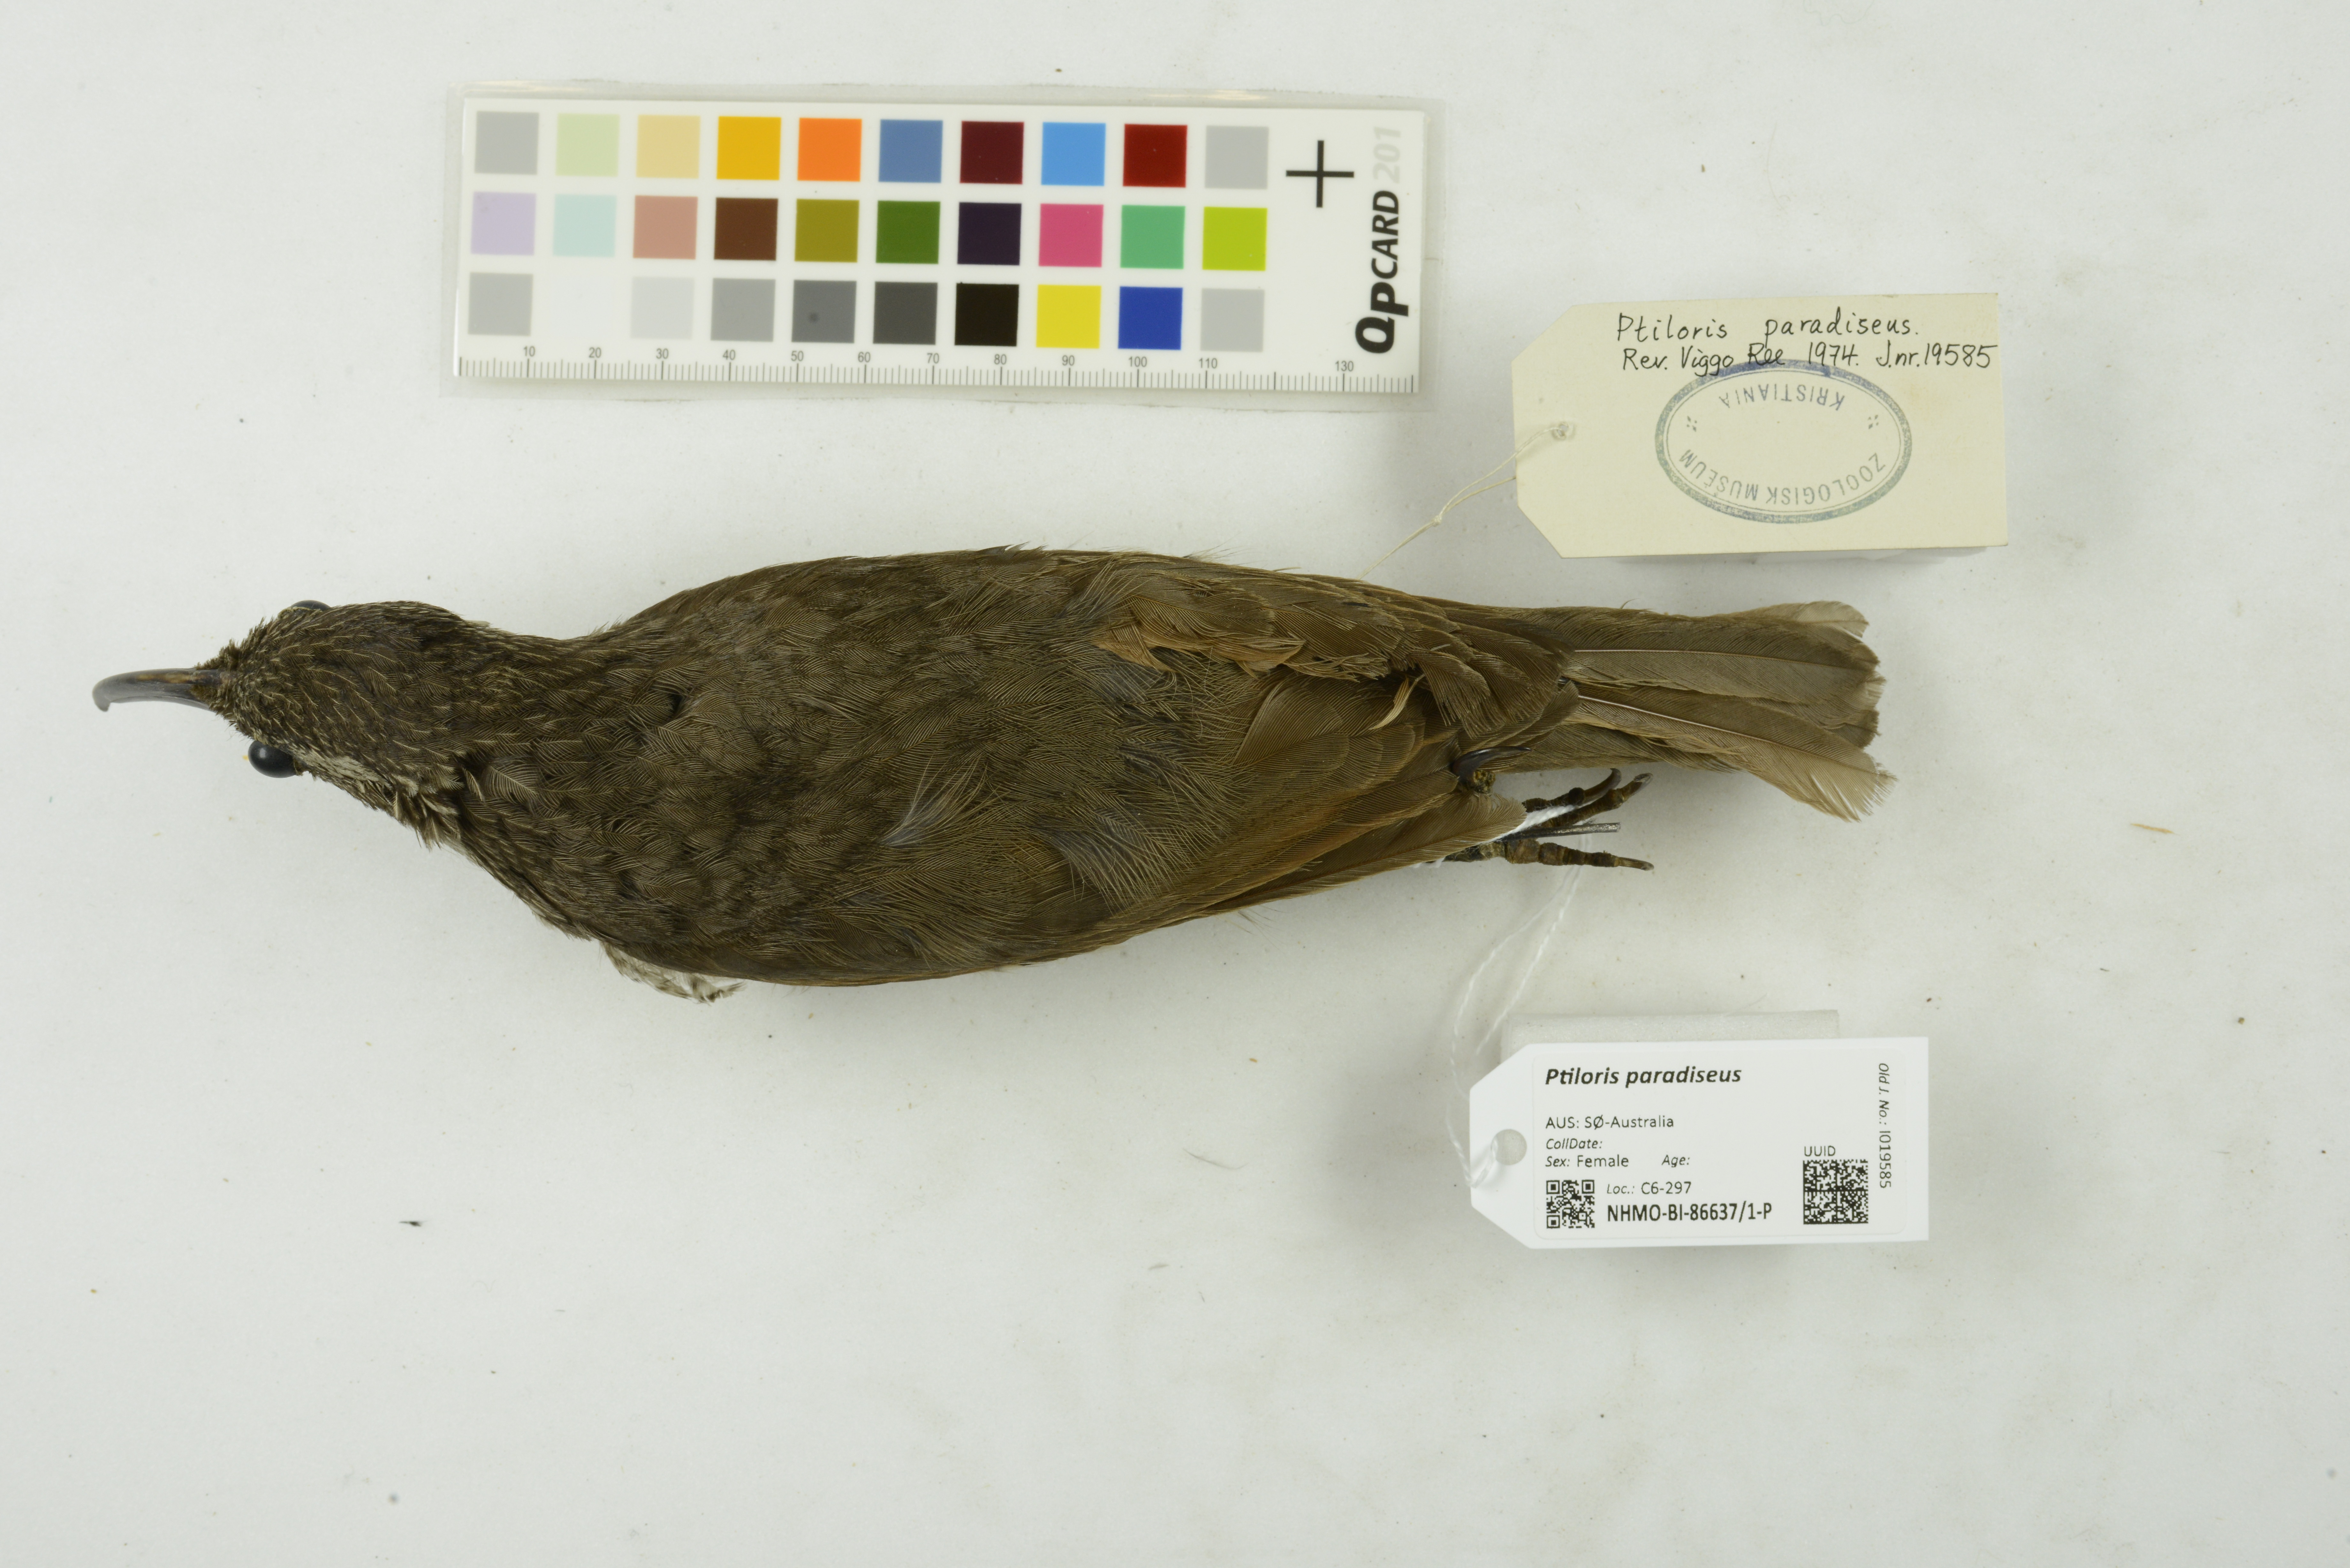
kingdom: Animalia
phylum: Chordata
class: Aves
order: Passeriformes
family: Paradisaeidae
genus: Ptiloris
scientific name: Ptiloris paradiseus
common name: Paradise riflebird
